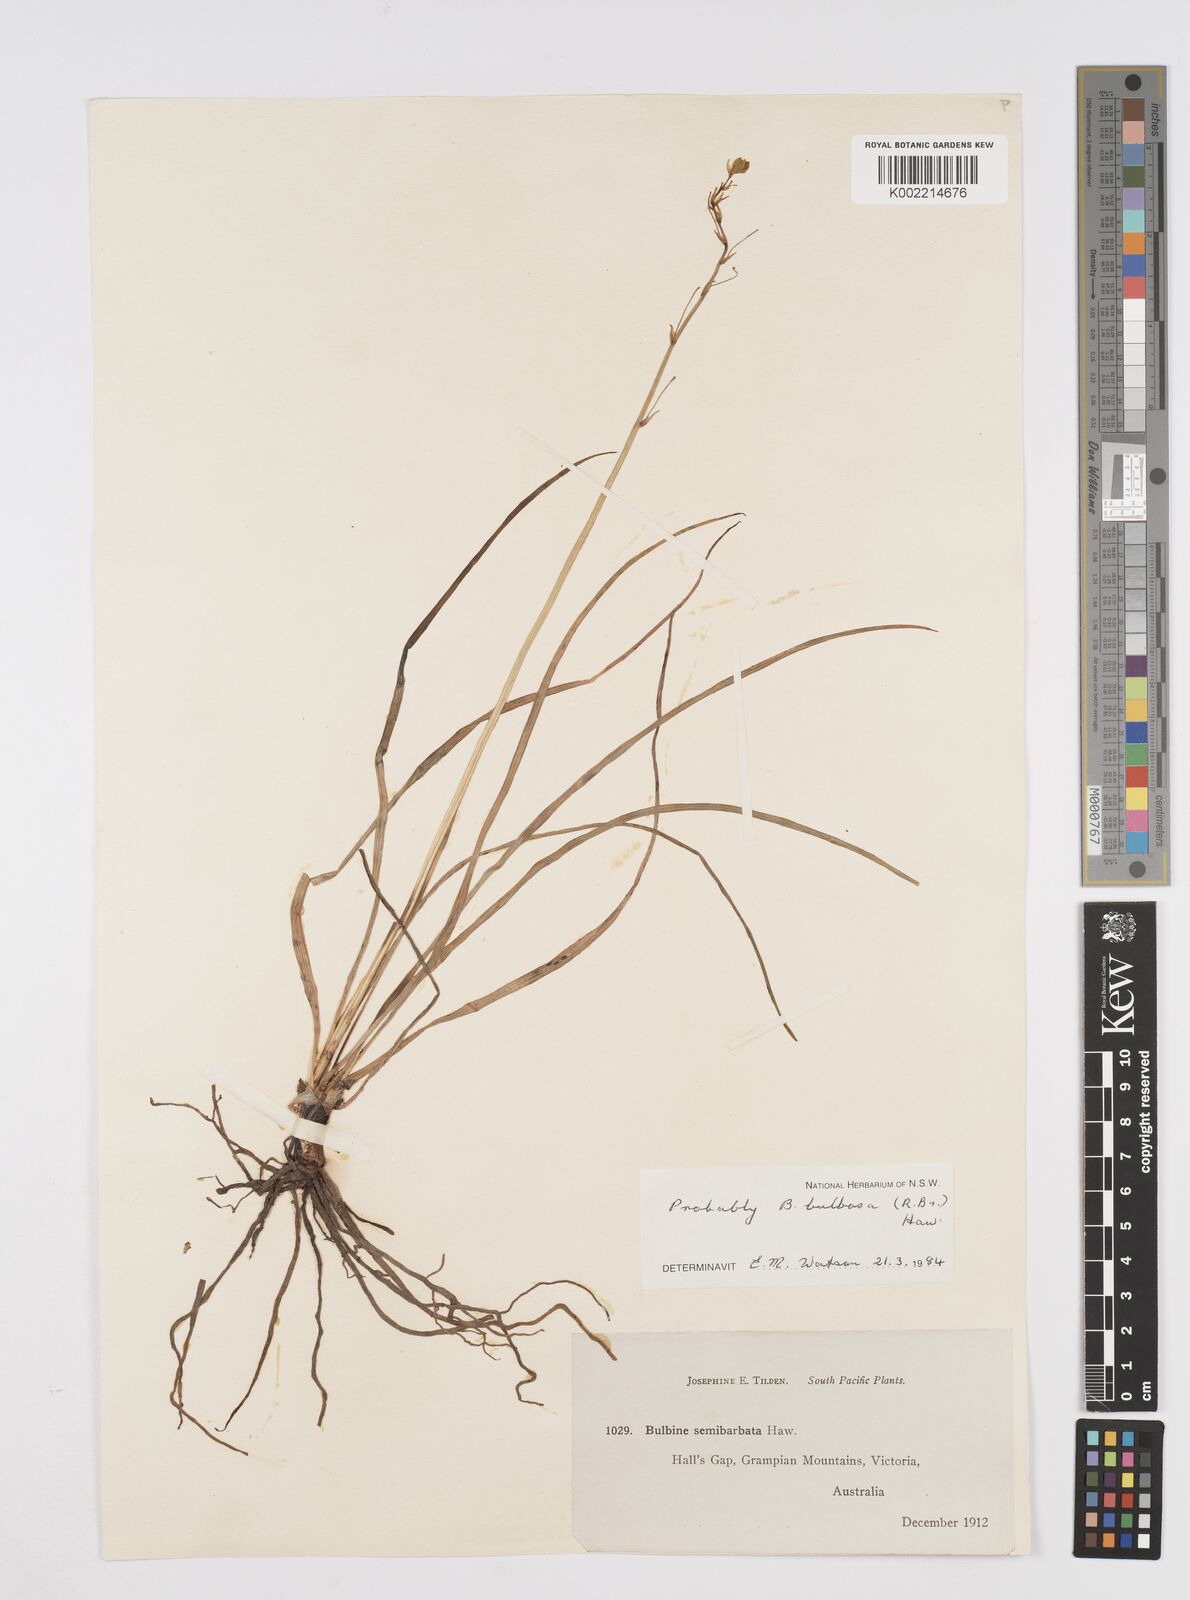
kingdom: Plantae
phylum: Tracheophyta
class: Liliopsida
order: Asparagales
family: Asphodelaceae
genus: Bulbine
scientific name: Bulbine bulbosa
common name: Golden-lily
